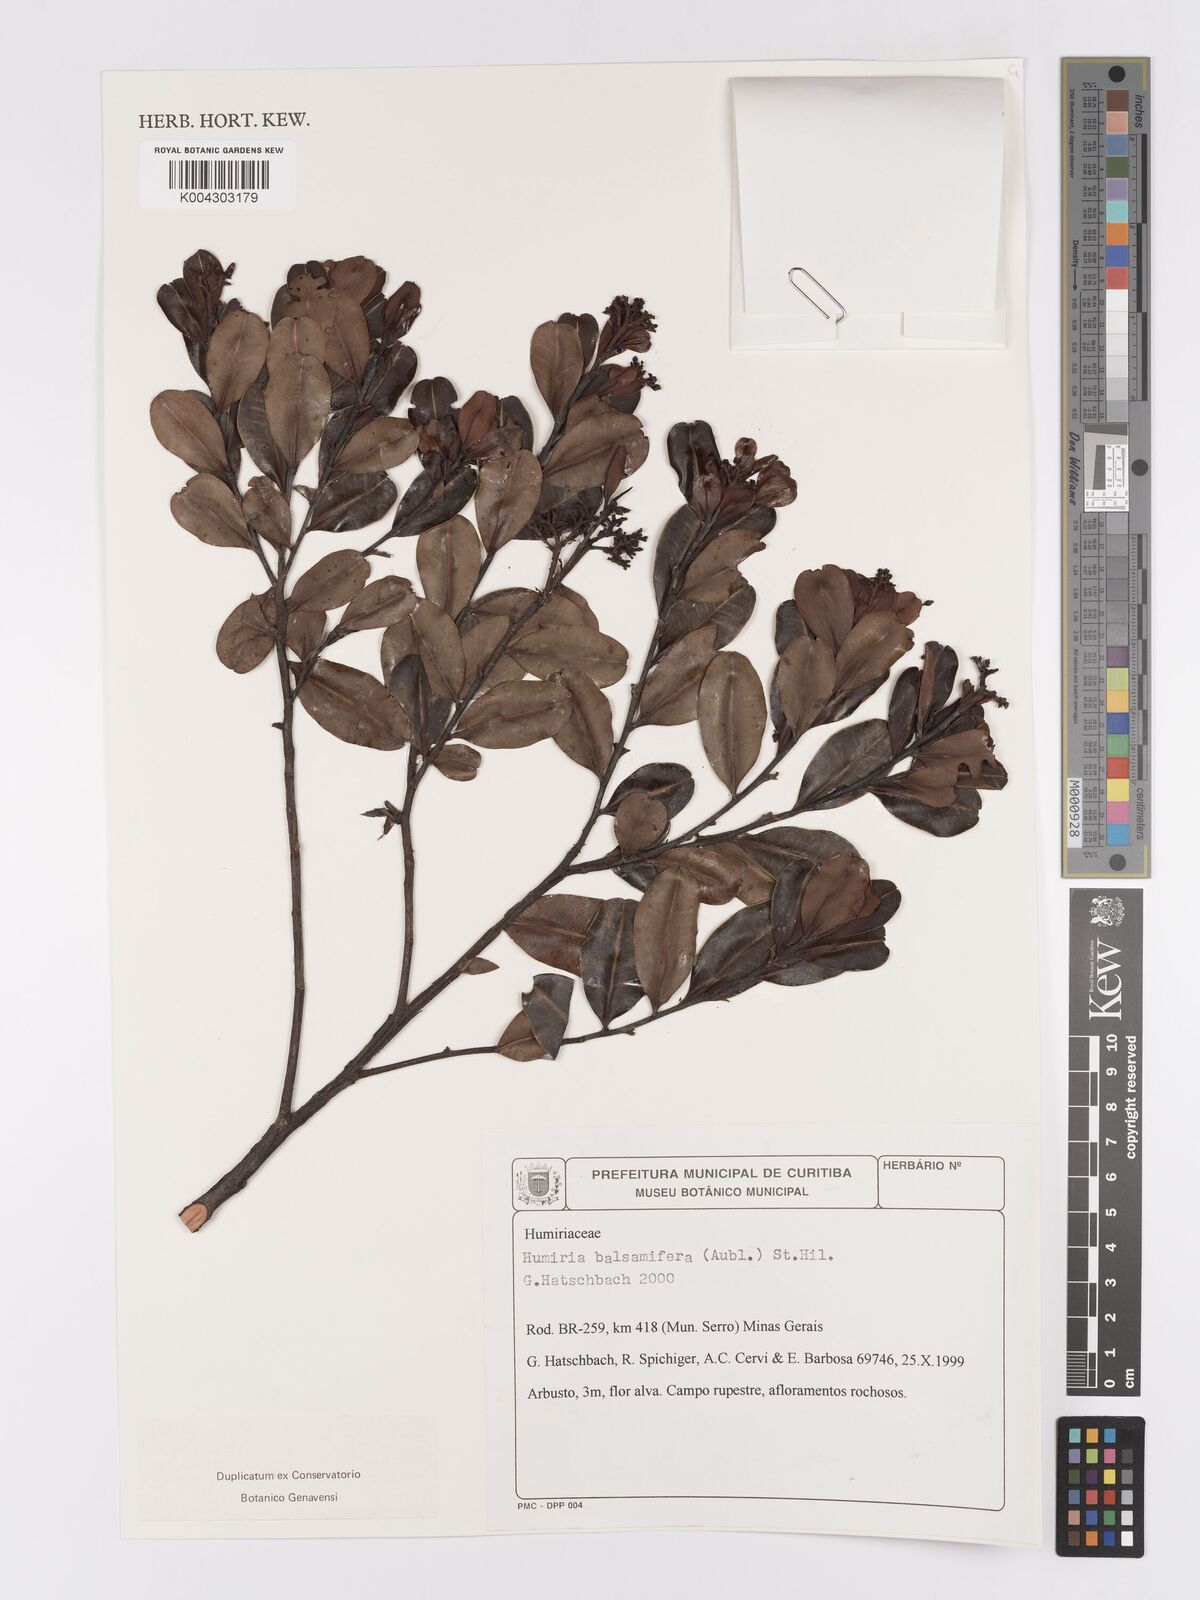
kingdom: Plantae
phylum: Tracheophyta
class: Magnoliopsida
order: Malpighiales
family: Humiriaceae
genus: Humiria
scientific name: Humiria parvifolia
